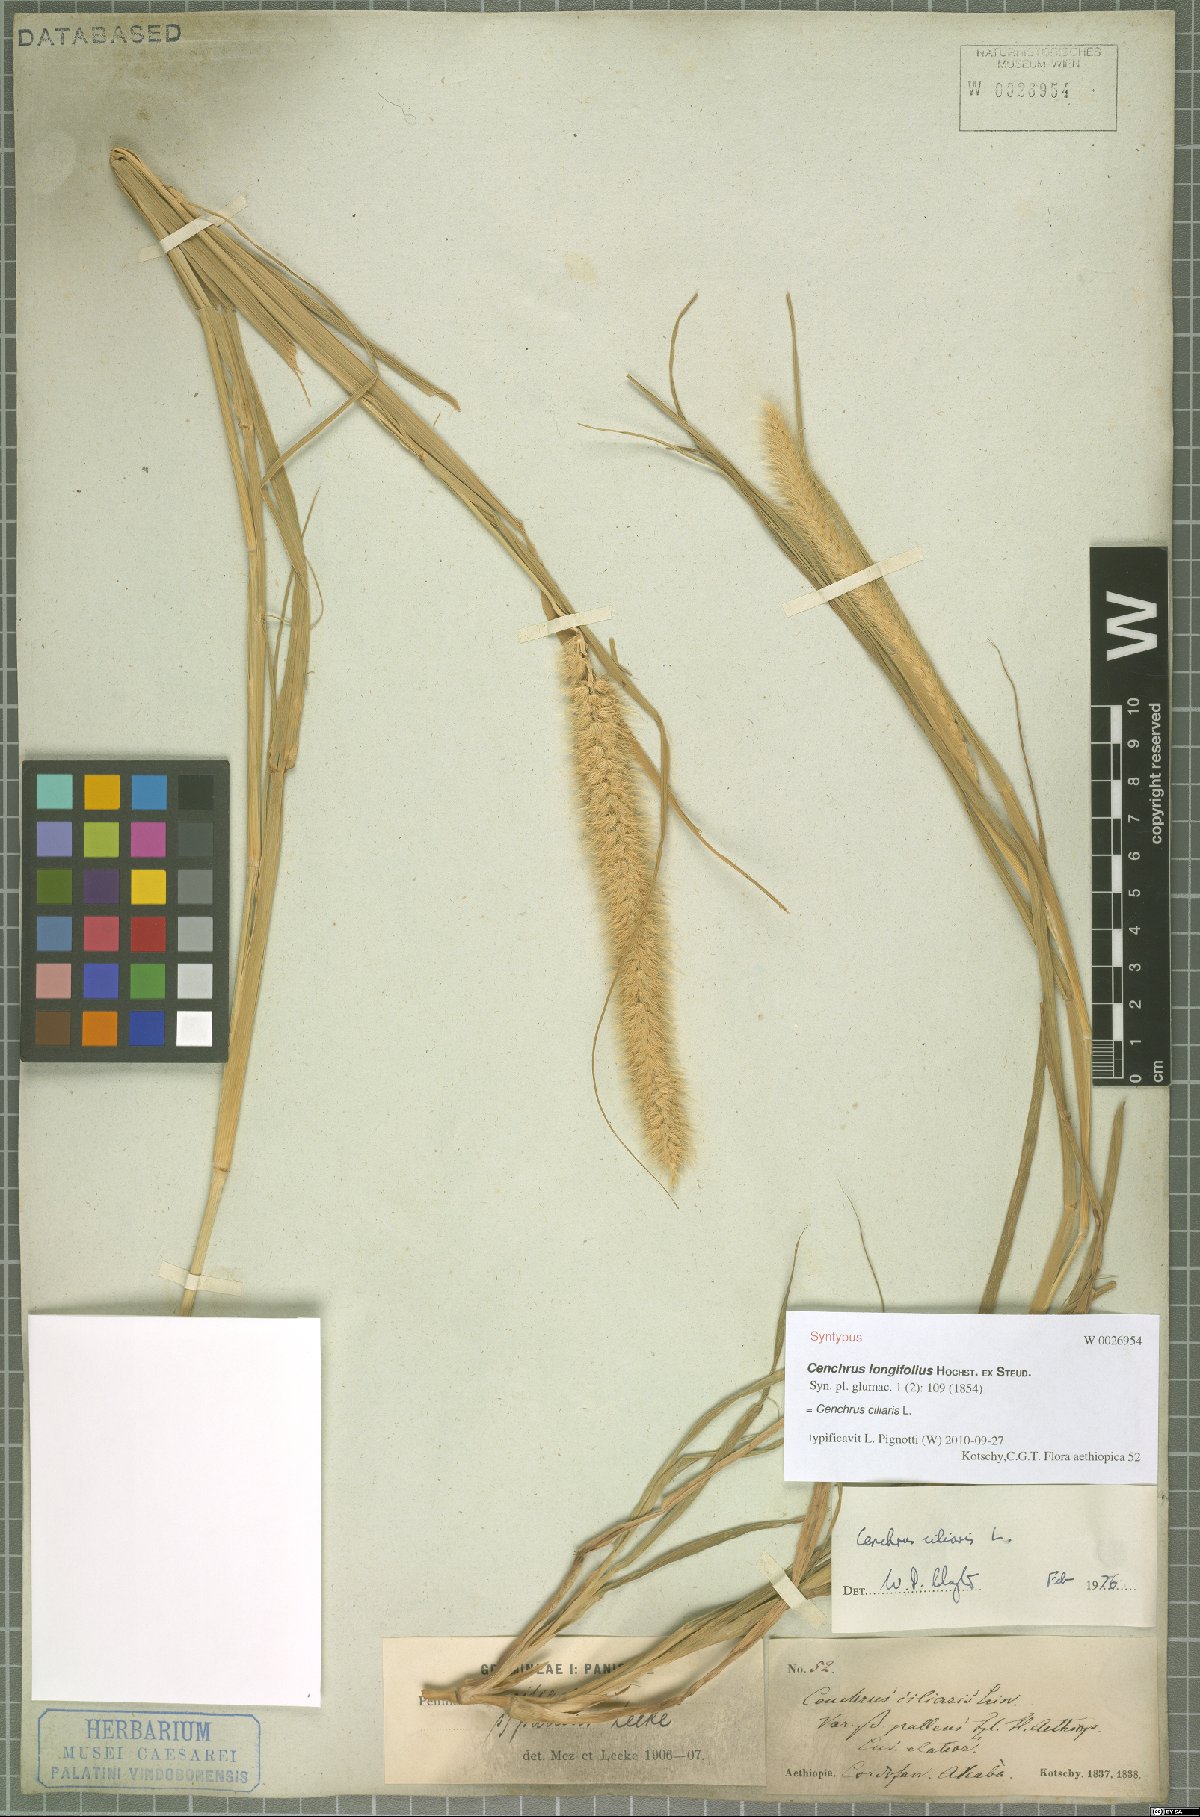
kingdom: Plantae
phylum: Tracheophyta
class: Liliopsida
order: Poales
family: Poaceae
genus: Cenchrus
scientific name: Cenchrus ciliaris
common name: Buffelgrass
